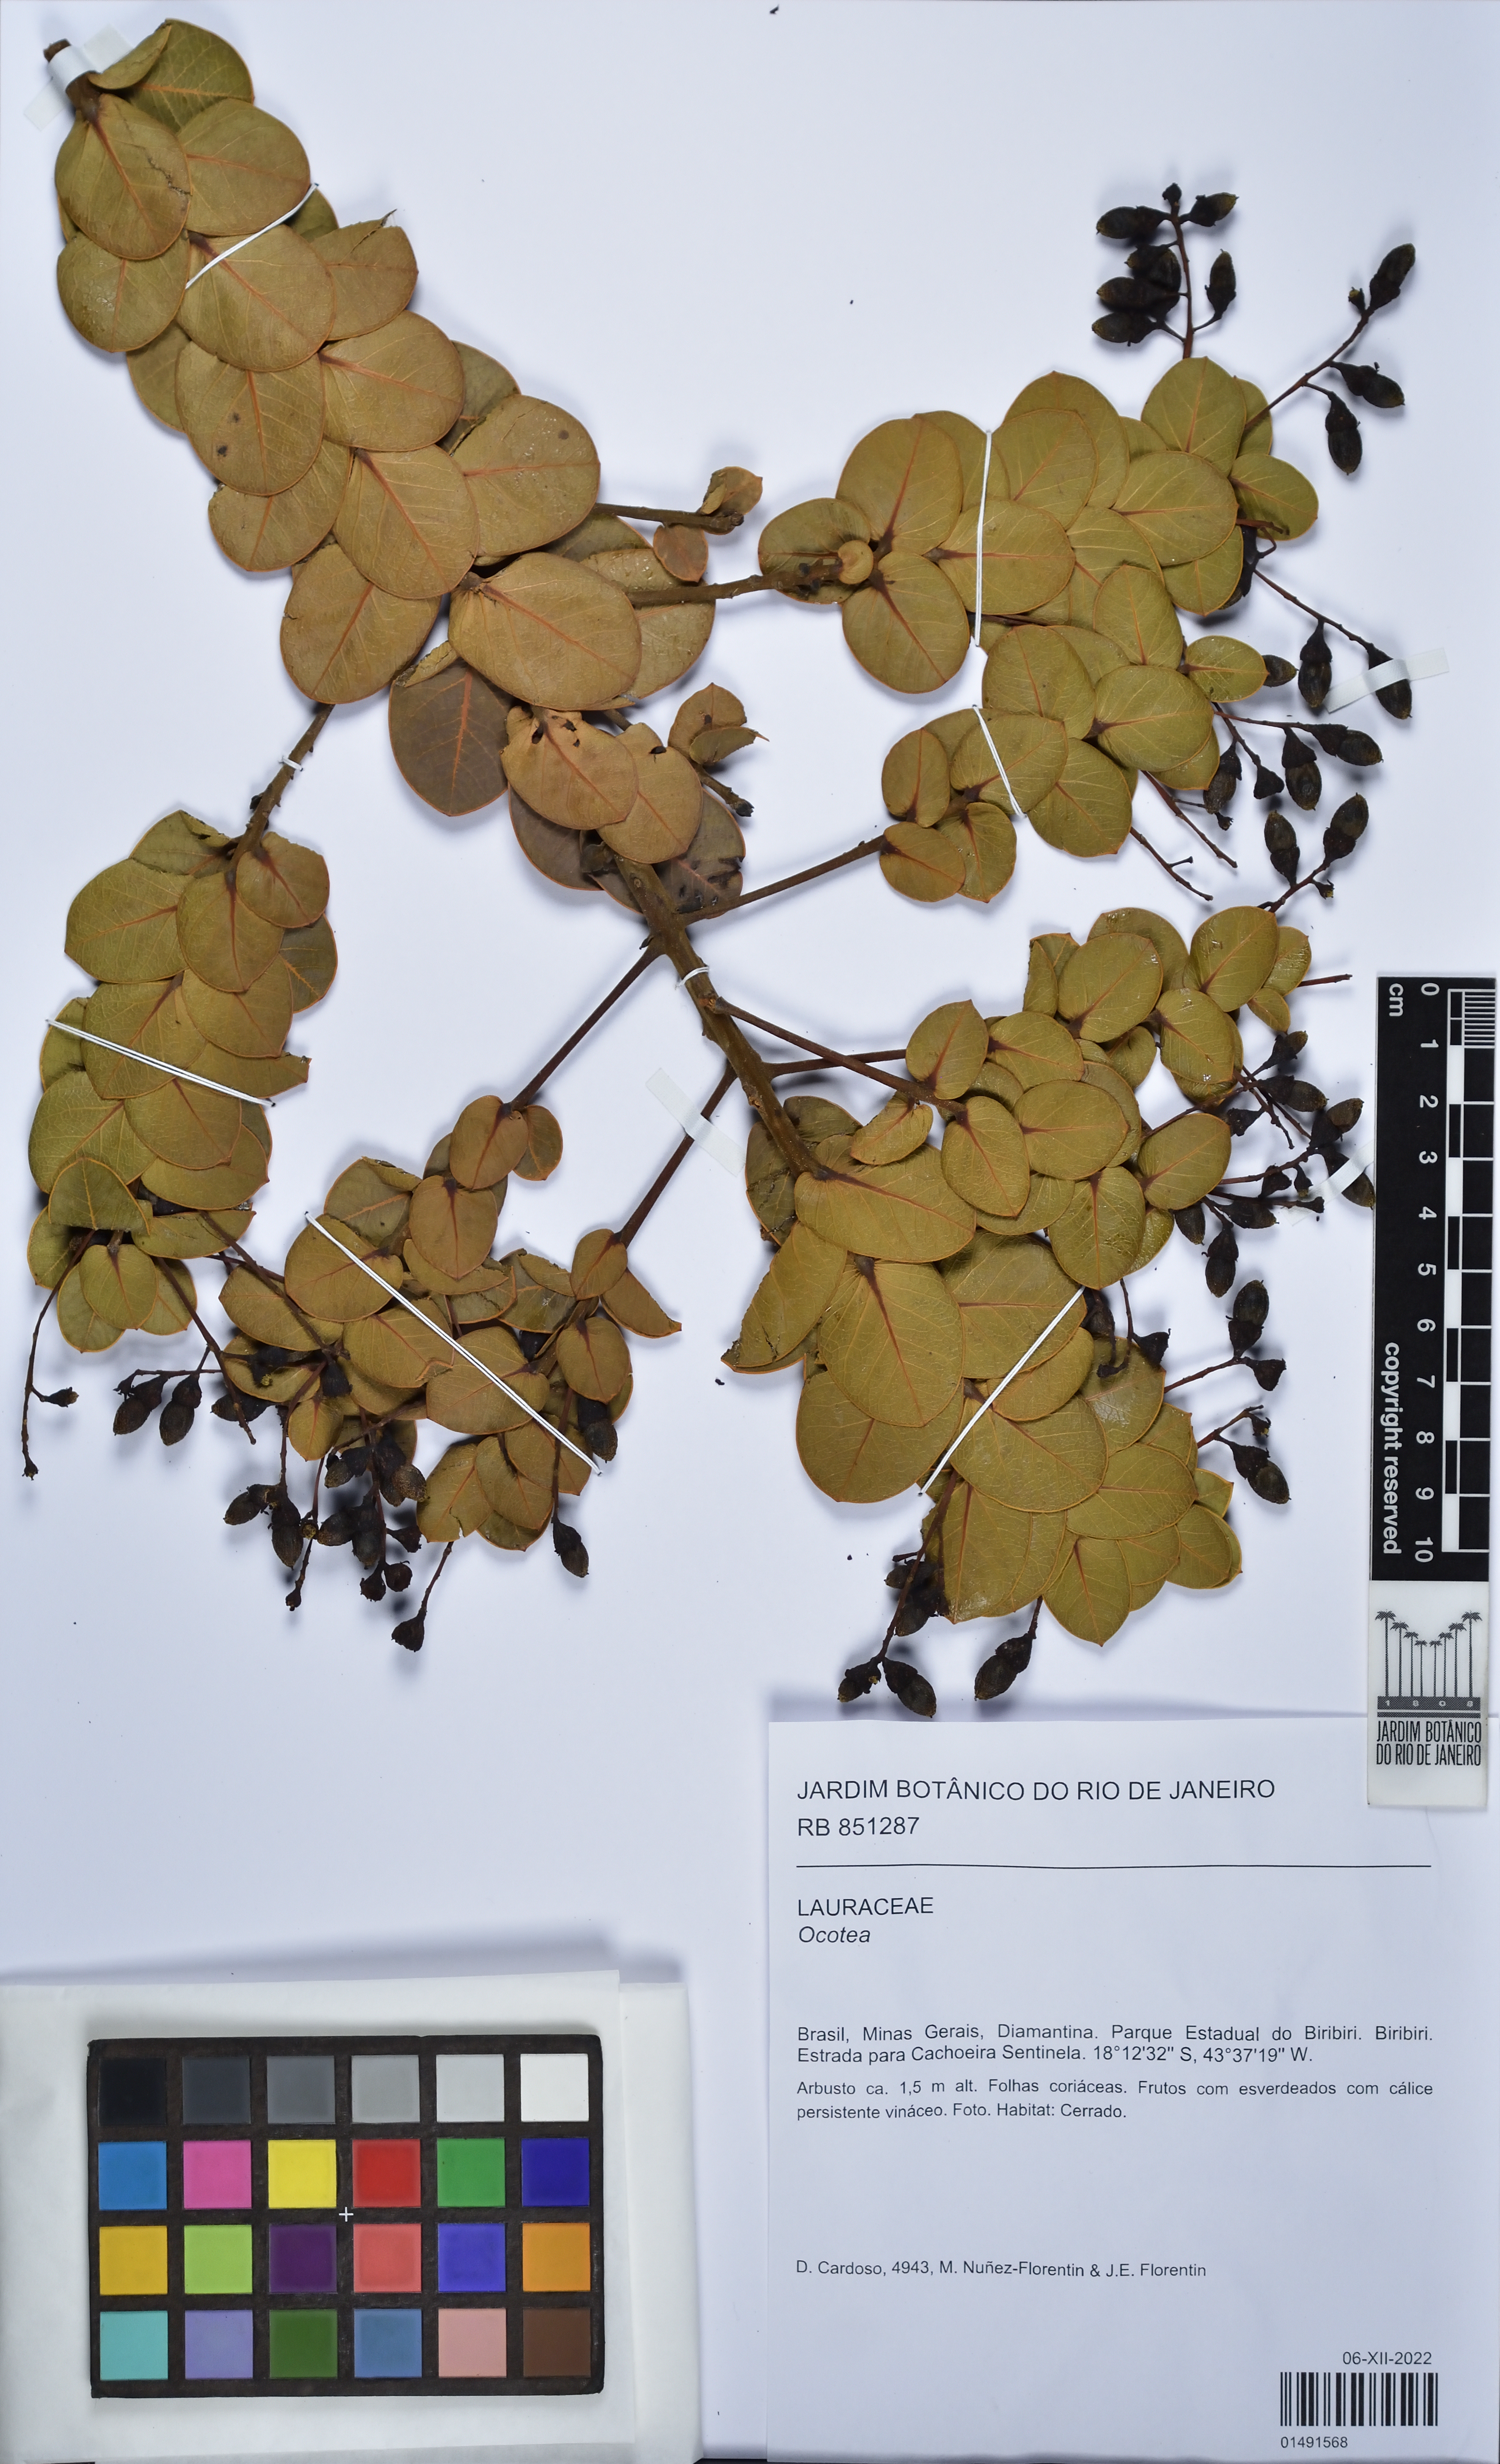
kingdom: Plantae
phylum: Tracheophyta
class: Magnoliopsida
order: Laurales
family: Lauraceae
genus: Ocotea
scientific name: Ocotea
